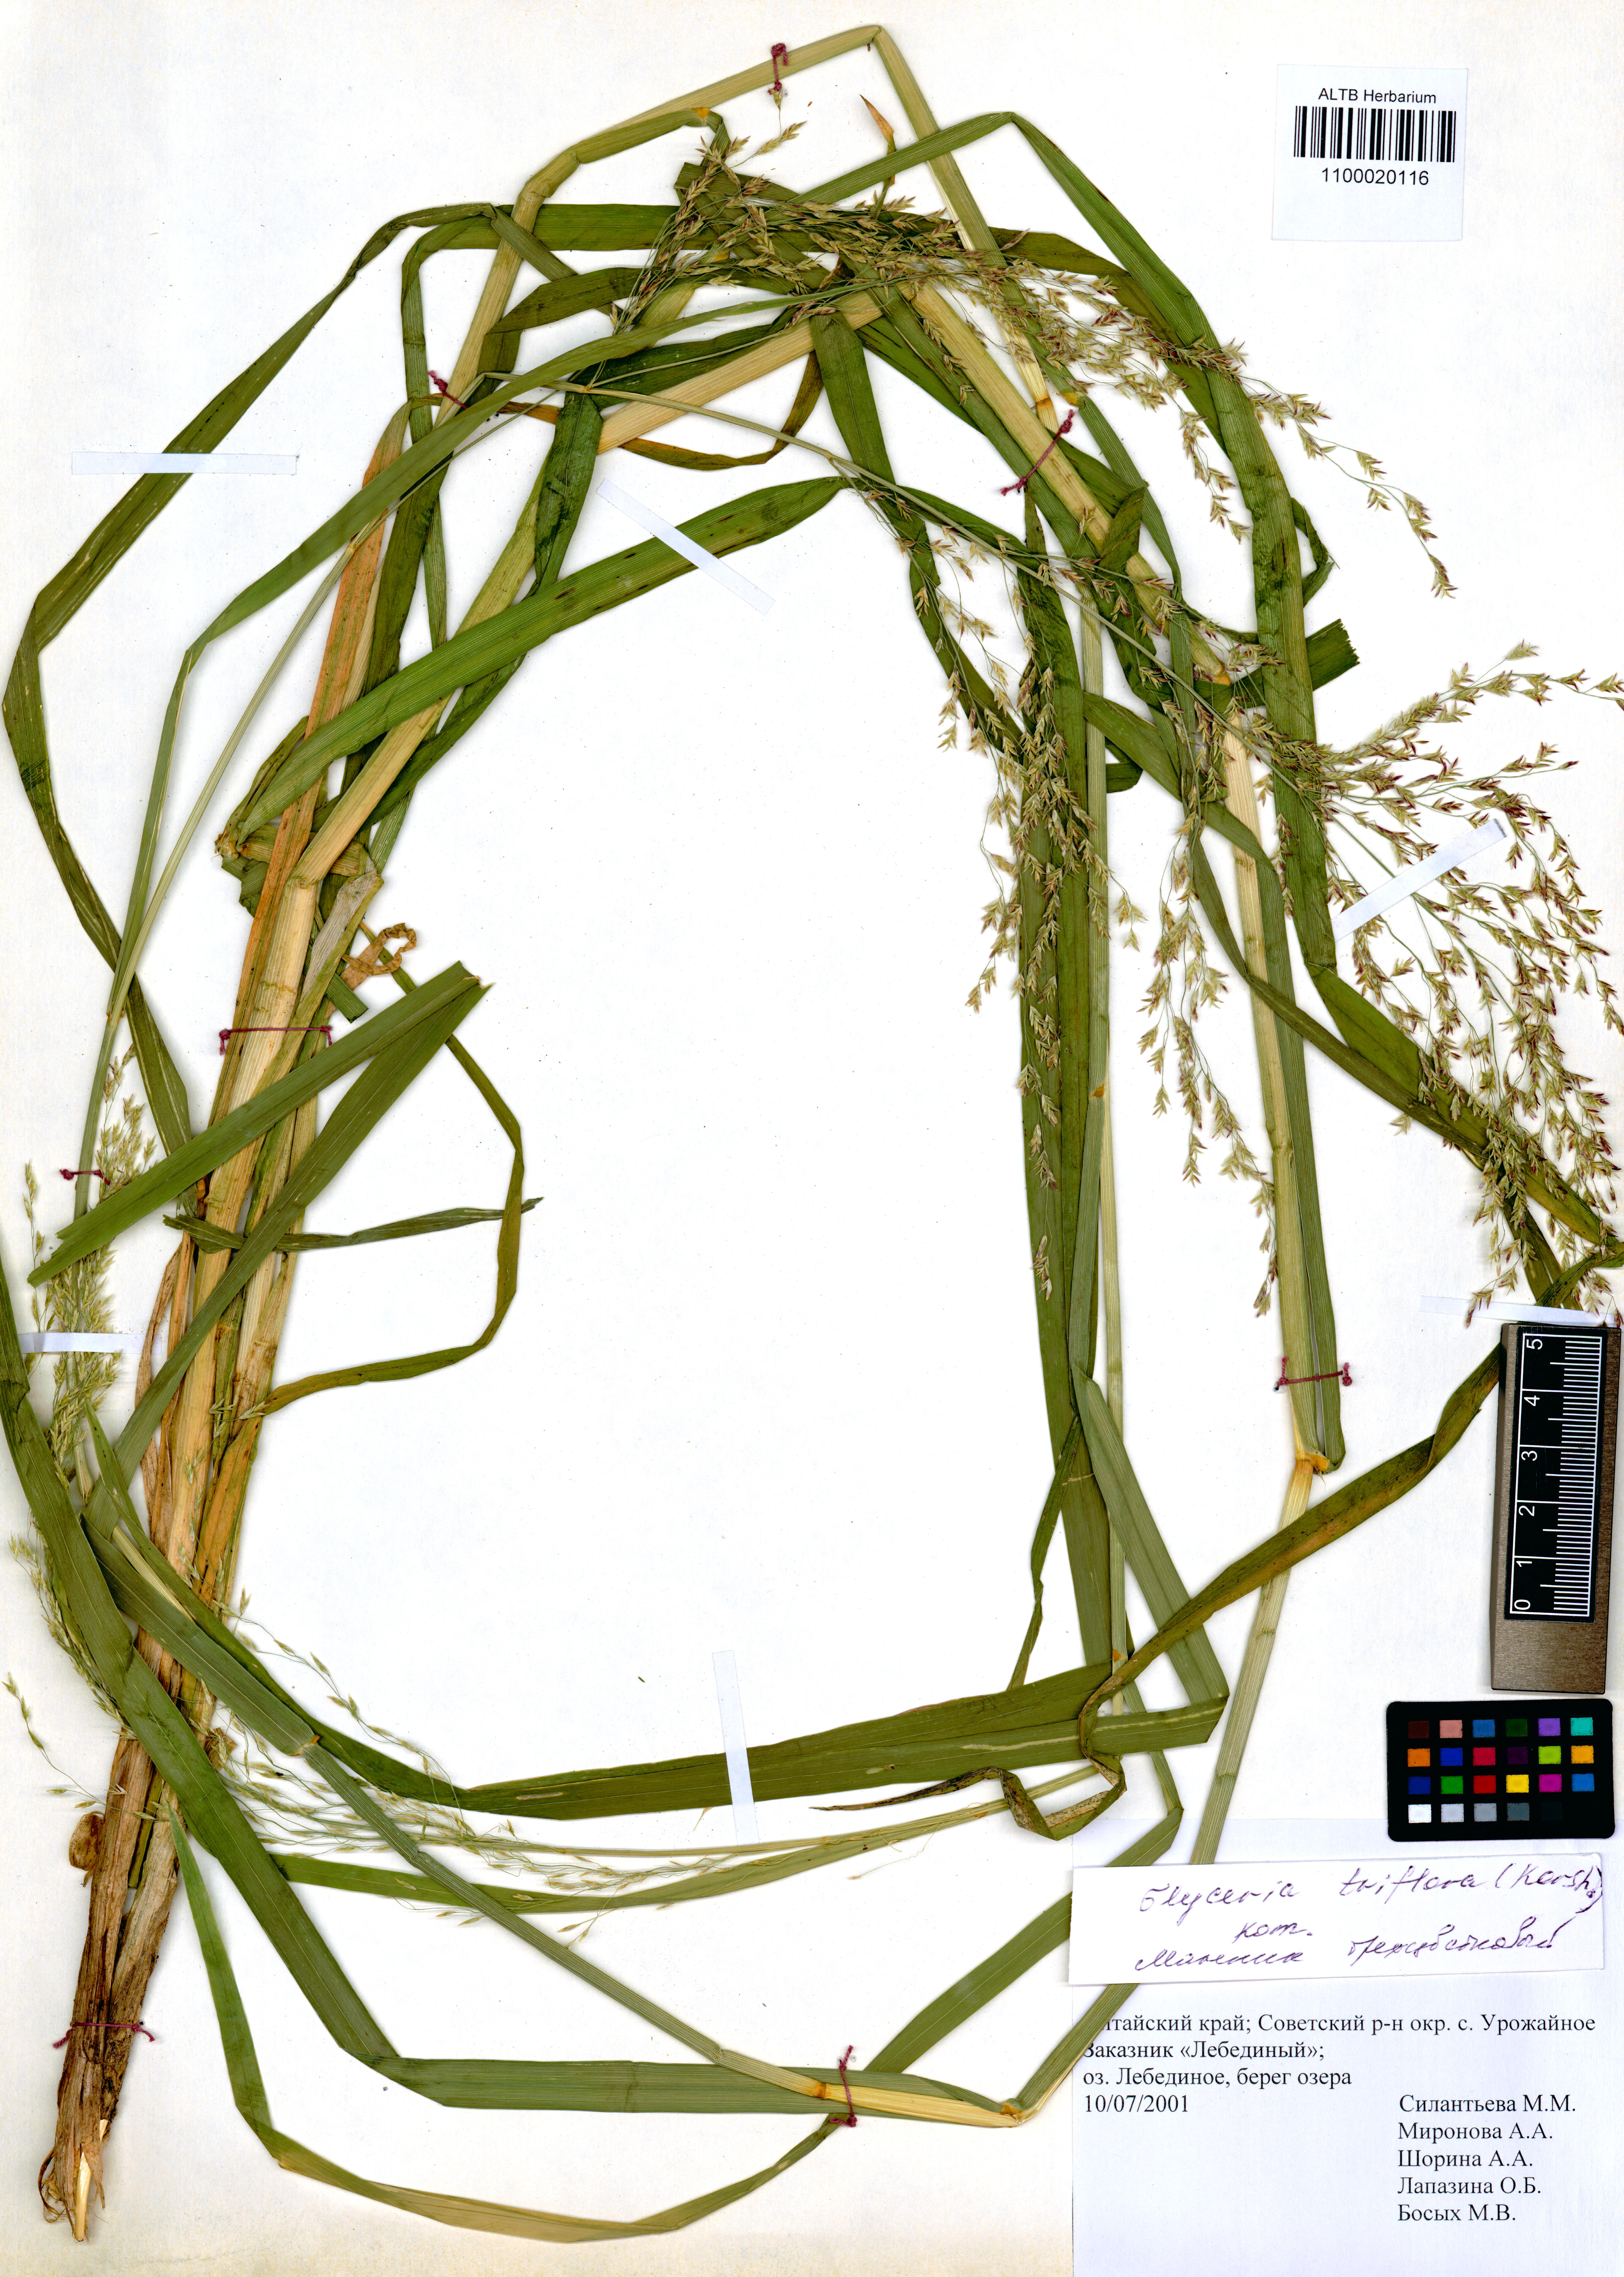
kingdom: Plantae
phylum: Tracheophyta
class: Liliopsida
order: Poales
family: Poaceae
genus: Glyceria
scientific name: Glyceria lithuanica
